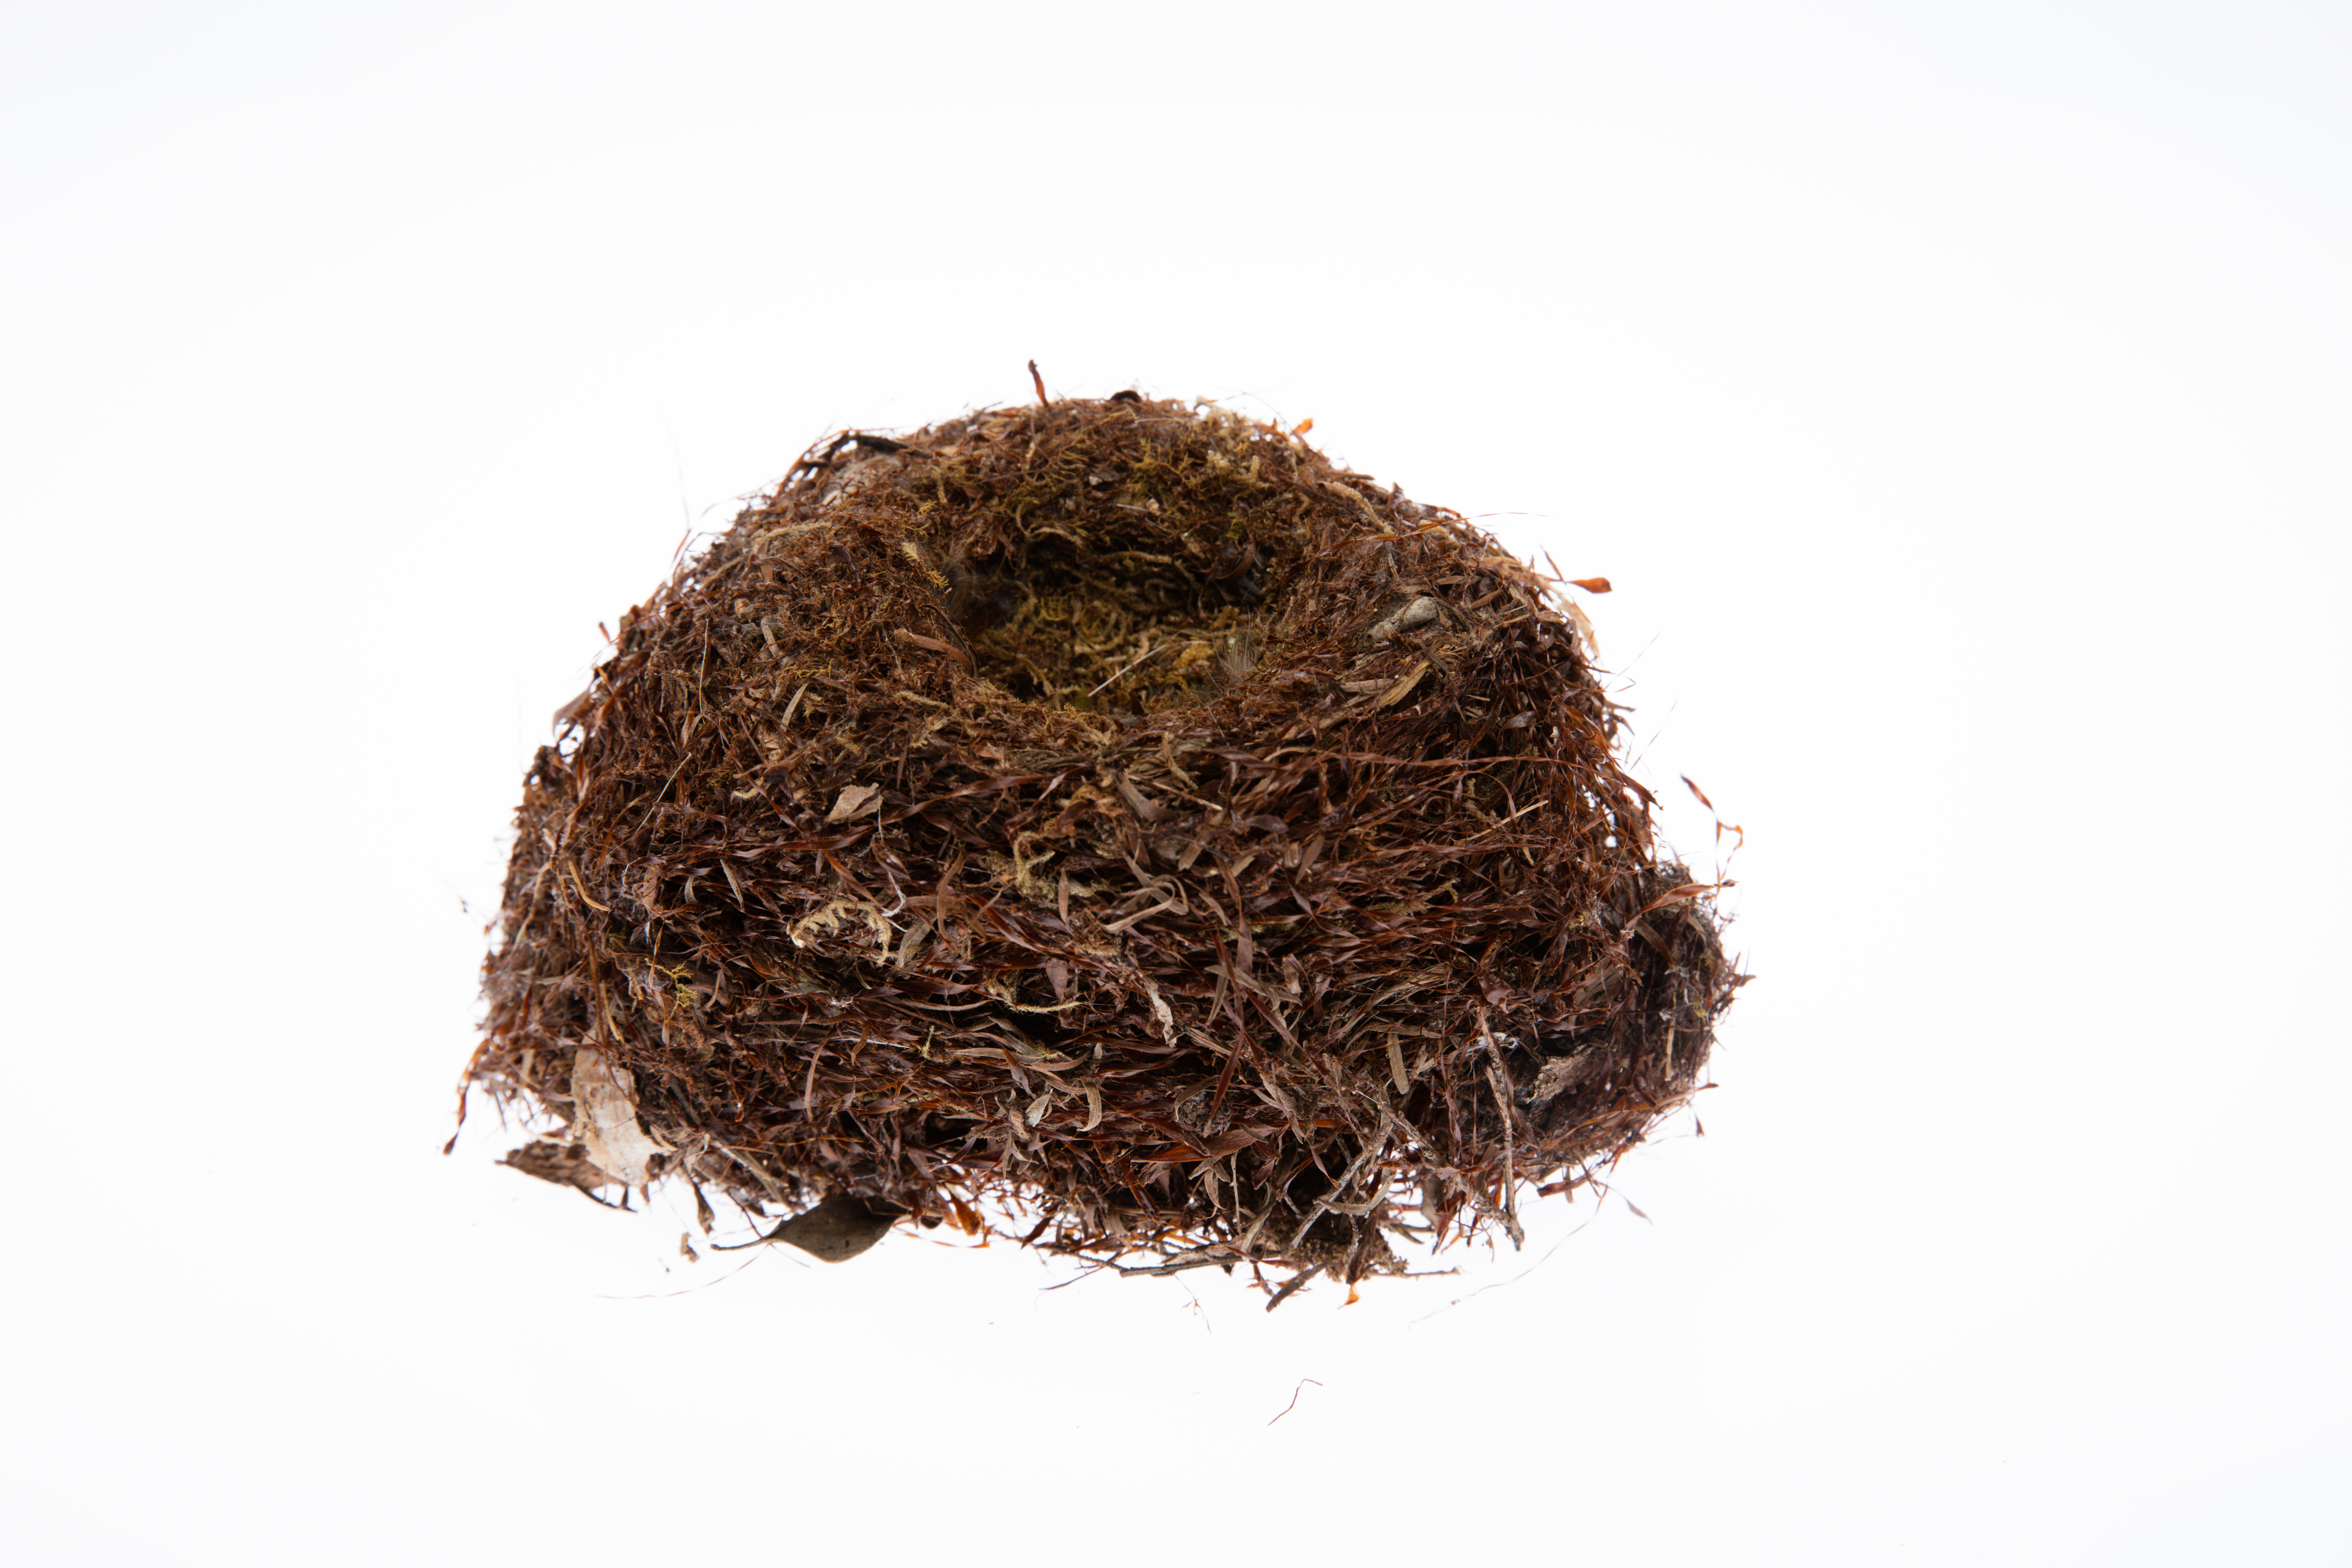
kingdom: Animalia
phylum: Chordata
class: Aves
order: Passeriformes
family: Petroicidae
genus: Petroica
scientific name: Petroica macrocephala
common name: Tomtit
